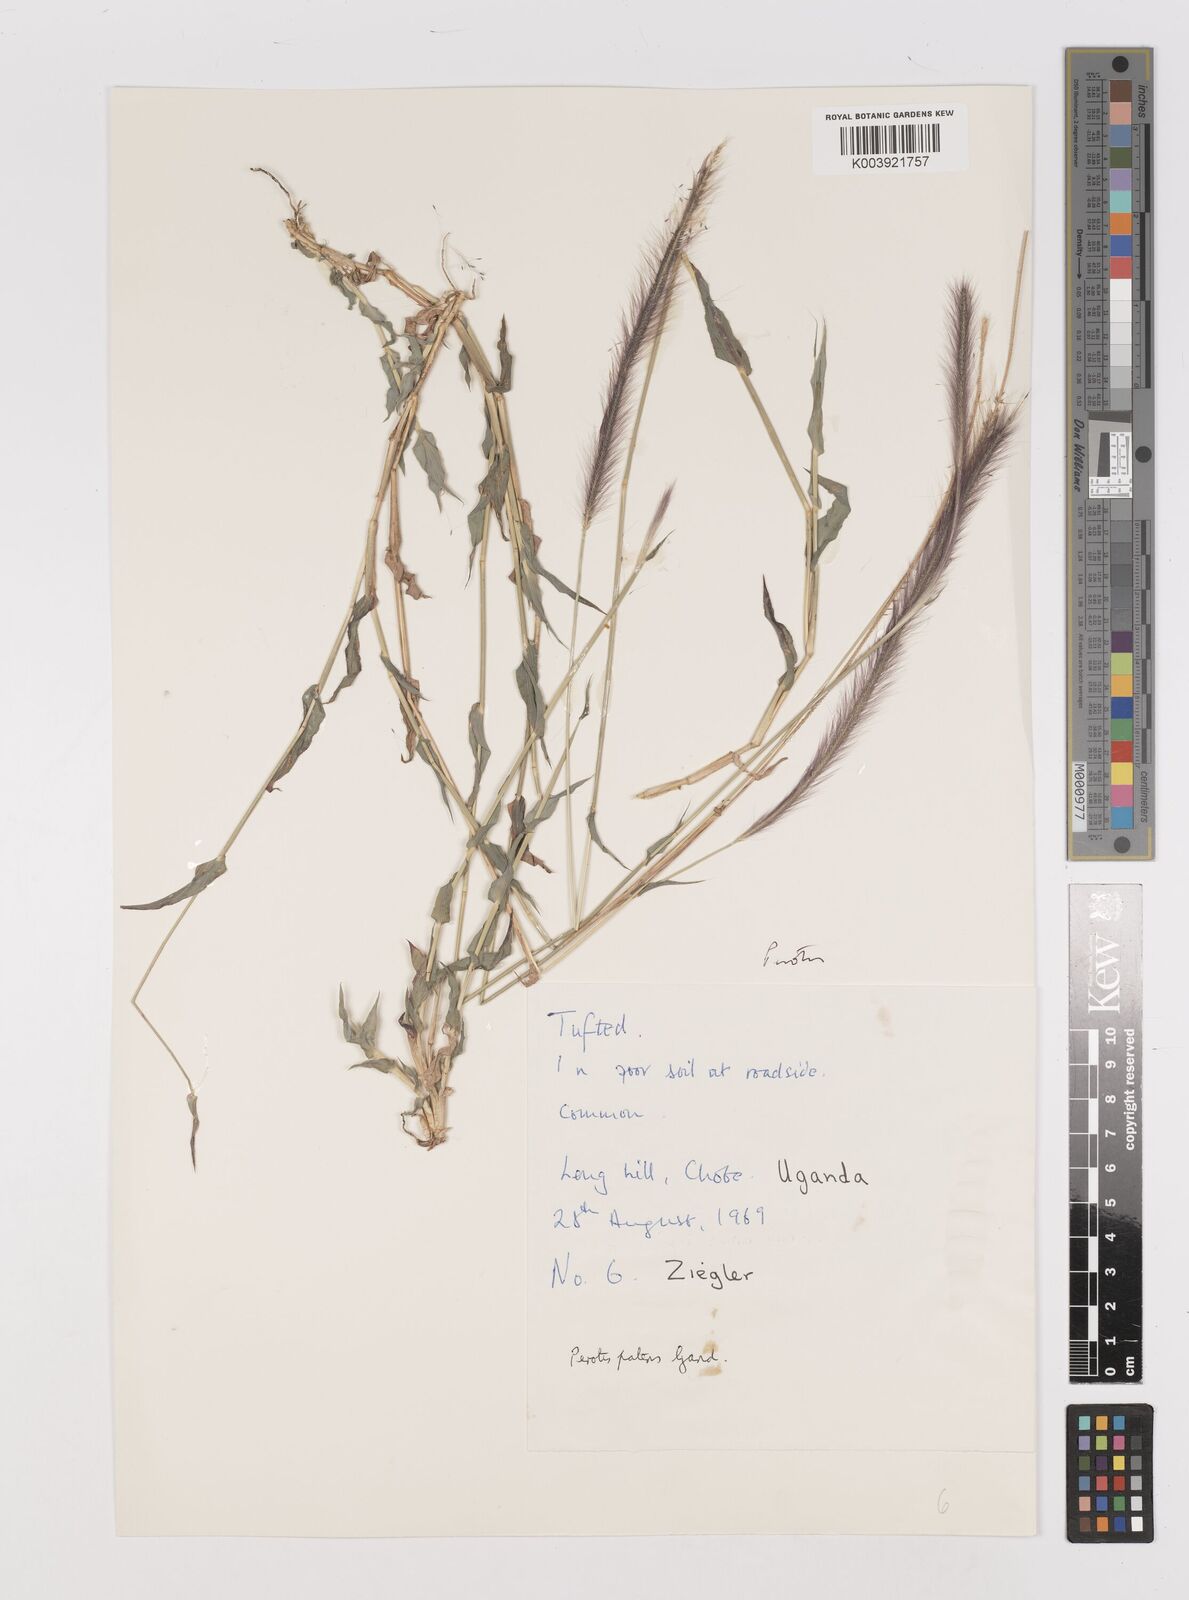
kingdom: Plantae
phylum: Tracheophyta
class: Liliopsida
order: Poales
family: Poaceae
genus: Perotis
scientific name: Perotis patens
